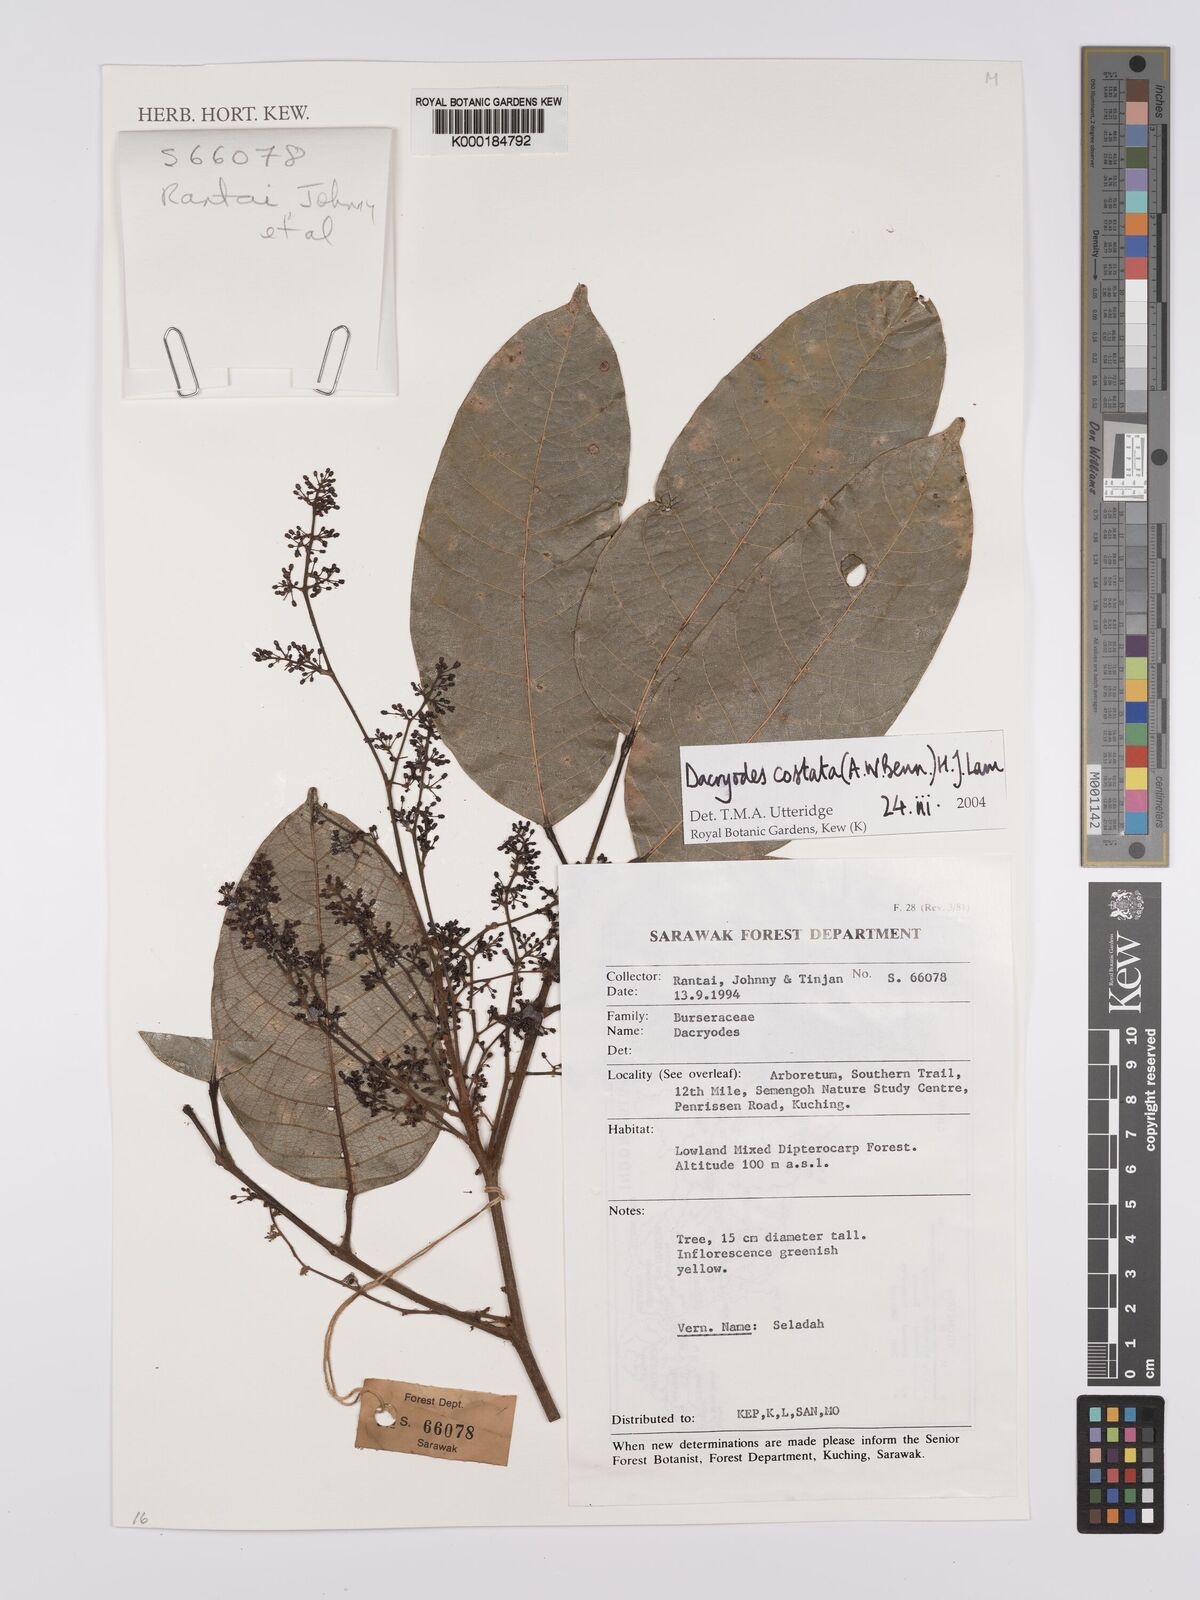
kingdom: Plantae
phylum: Tracheophyta
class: Magnoliopsida
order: Sapindales
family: Burseraceae
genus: Dacryodes
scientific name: Dacryodes costata
